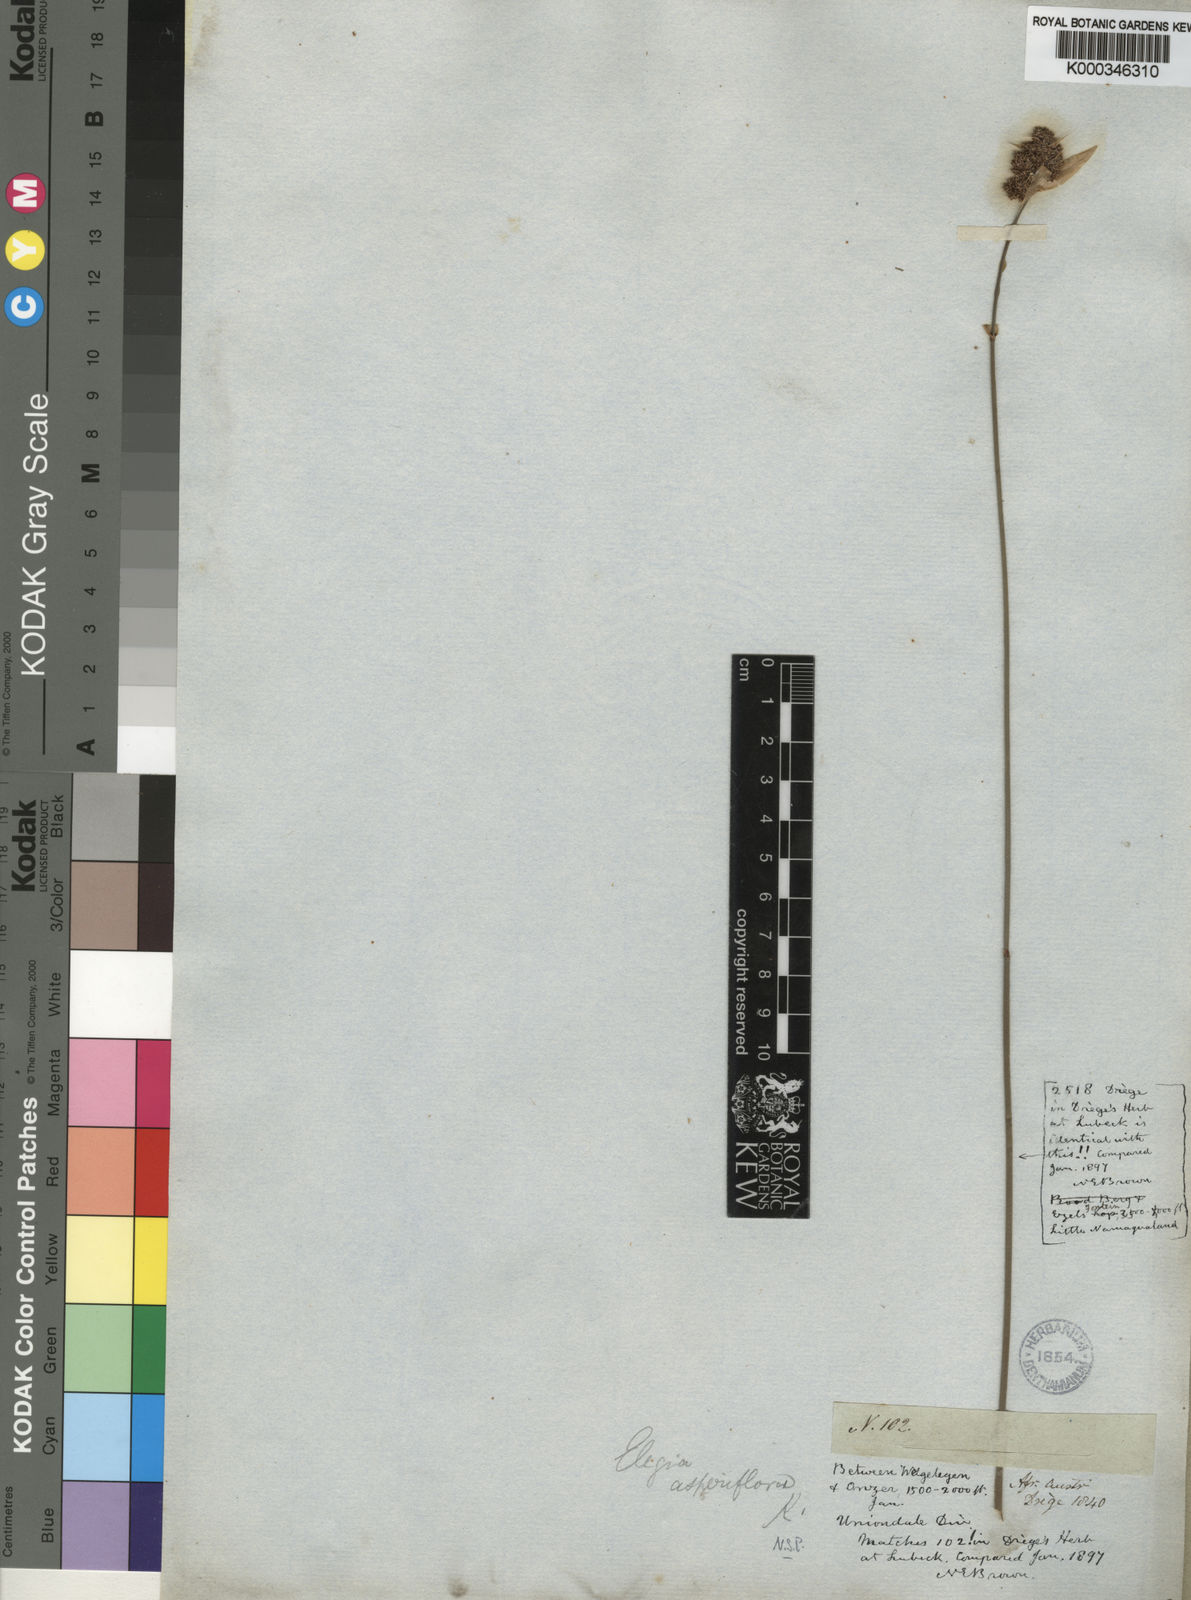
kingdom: Plantae
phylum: Tracheophyta
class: Liliopsida
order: Poales
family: Restionaceae
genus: Elegia
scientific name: Elegia asperiflora
